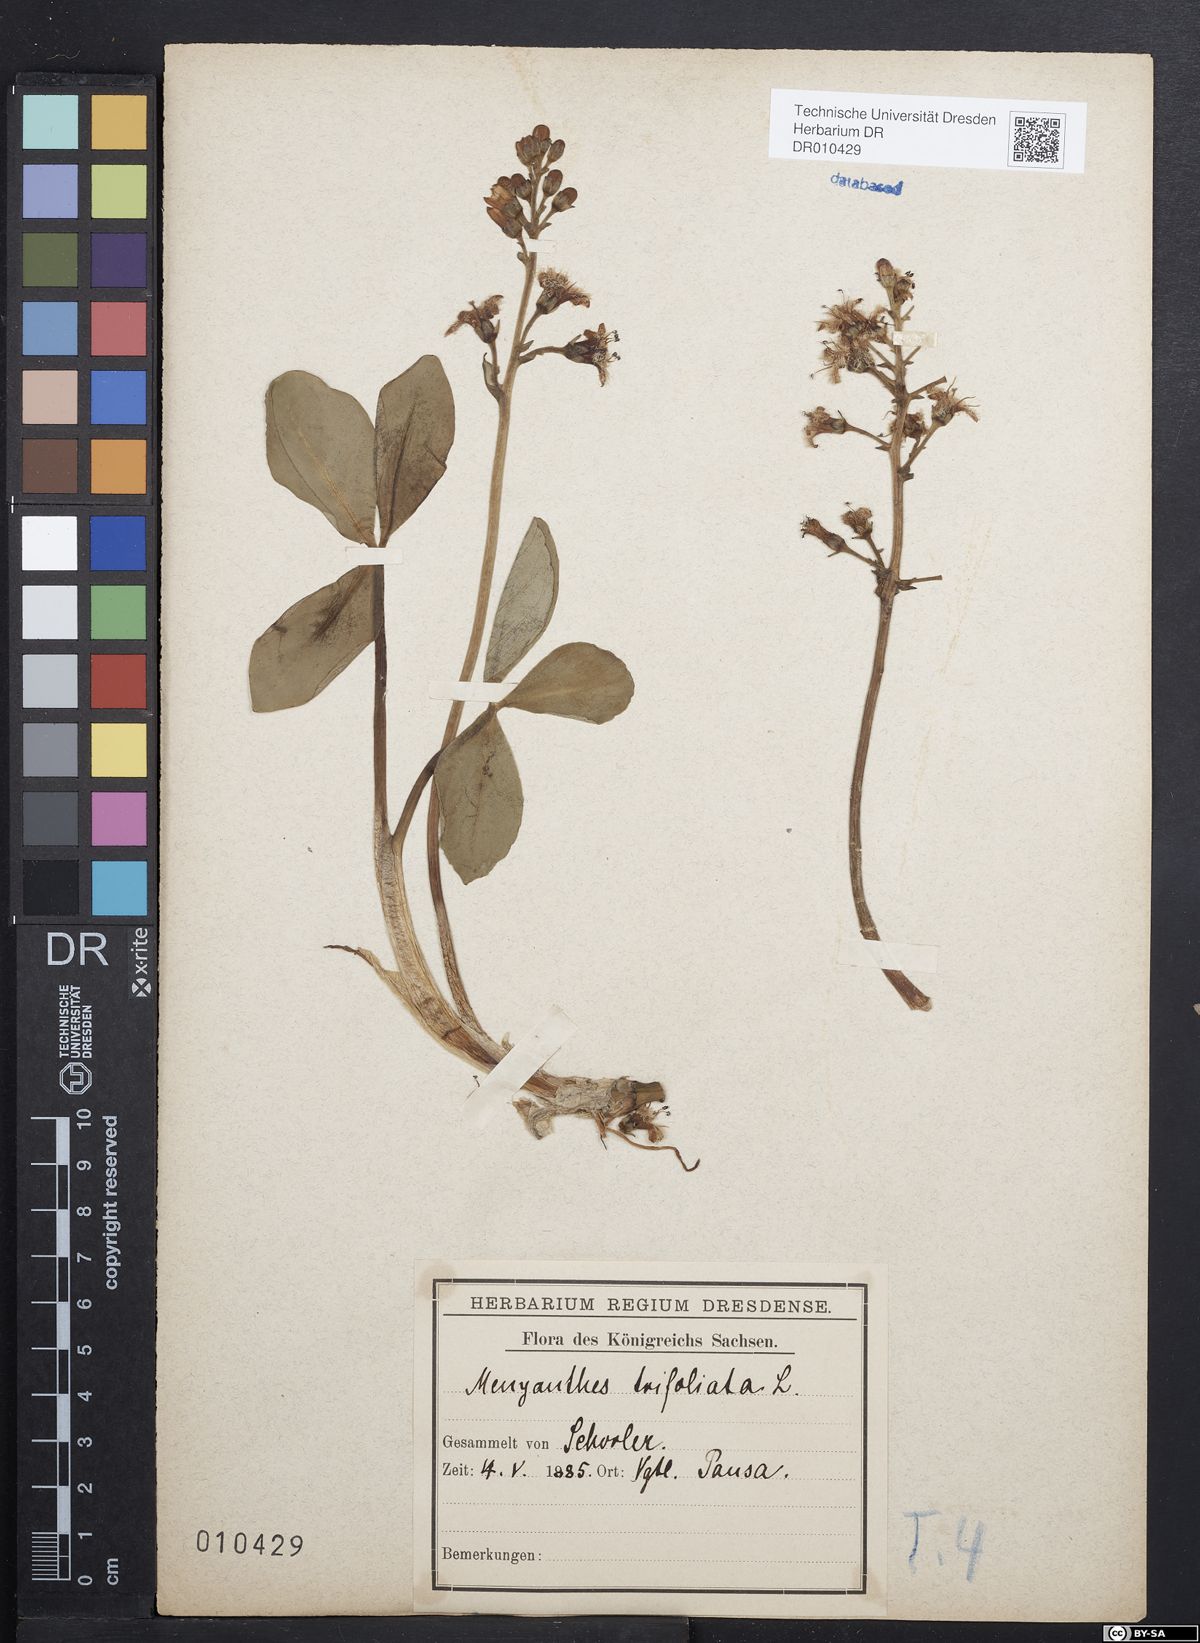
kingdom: Plantae
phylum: Tracheophyta
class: Magnoliopsida
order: Asterales
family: Menyanthaceae
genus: Menyanthes
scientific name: Menyanthes trifoliata
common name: Bogbean
